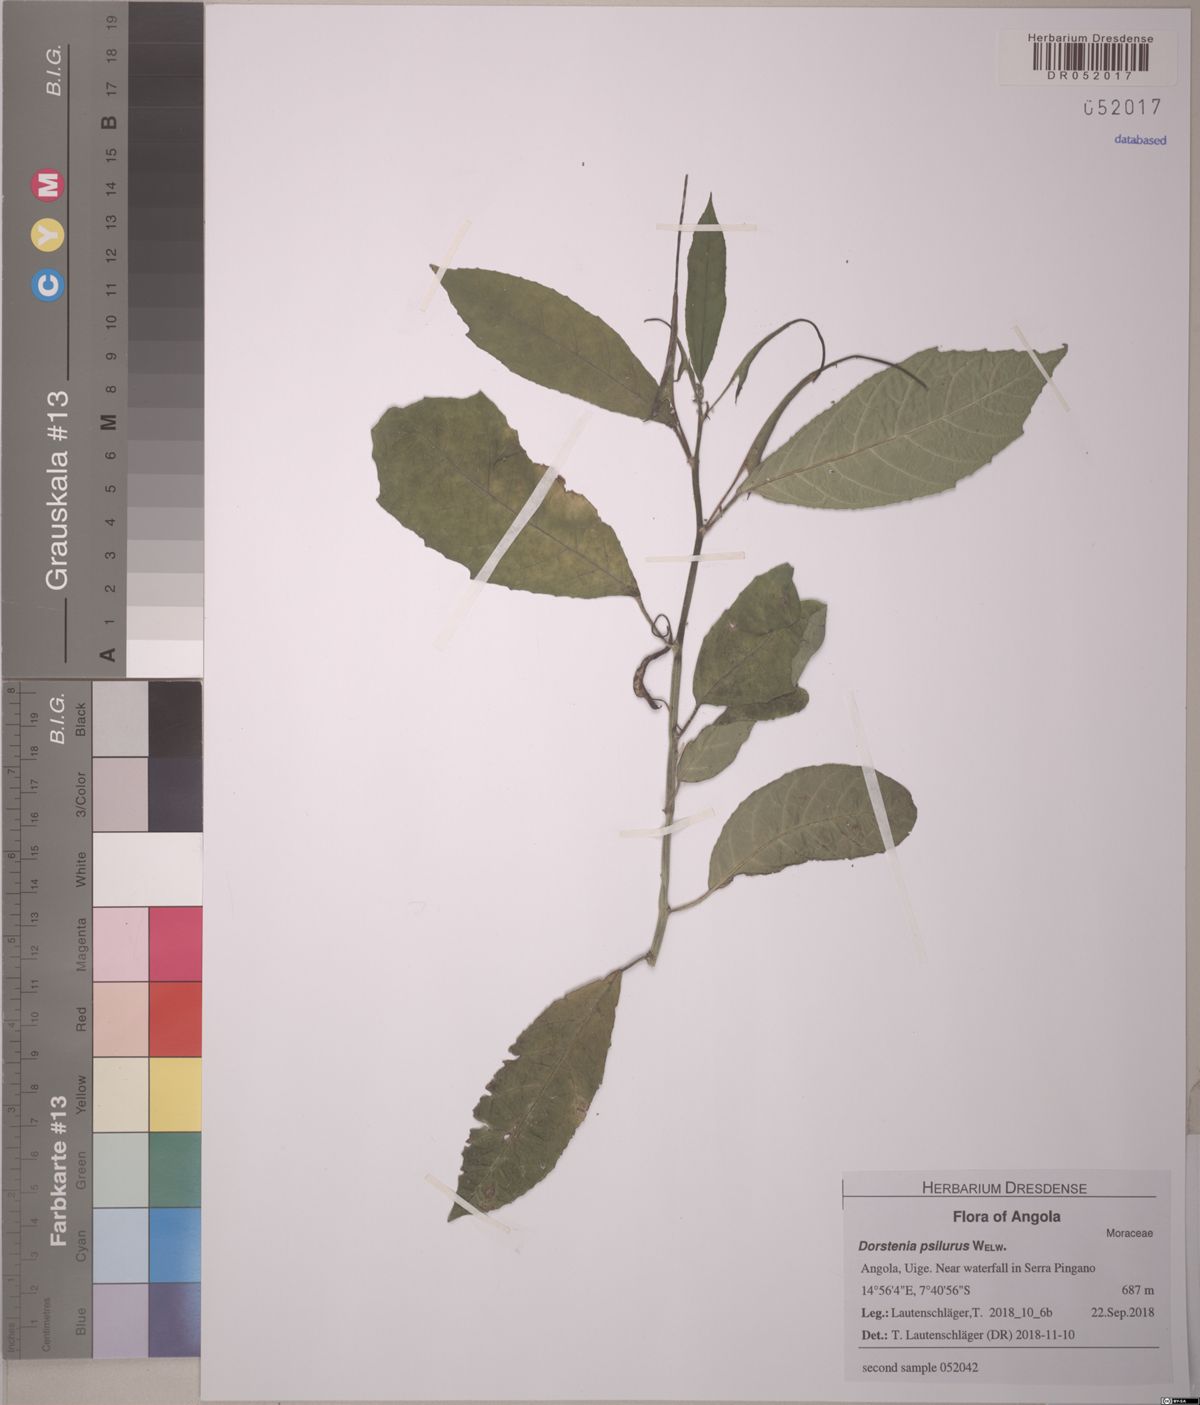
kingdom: Plantae
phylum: Tracheophyta
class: Magnoliopsida
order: Rosales
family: Moraceae
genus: Dorstenia
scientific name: Dorstenia psilurus
